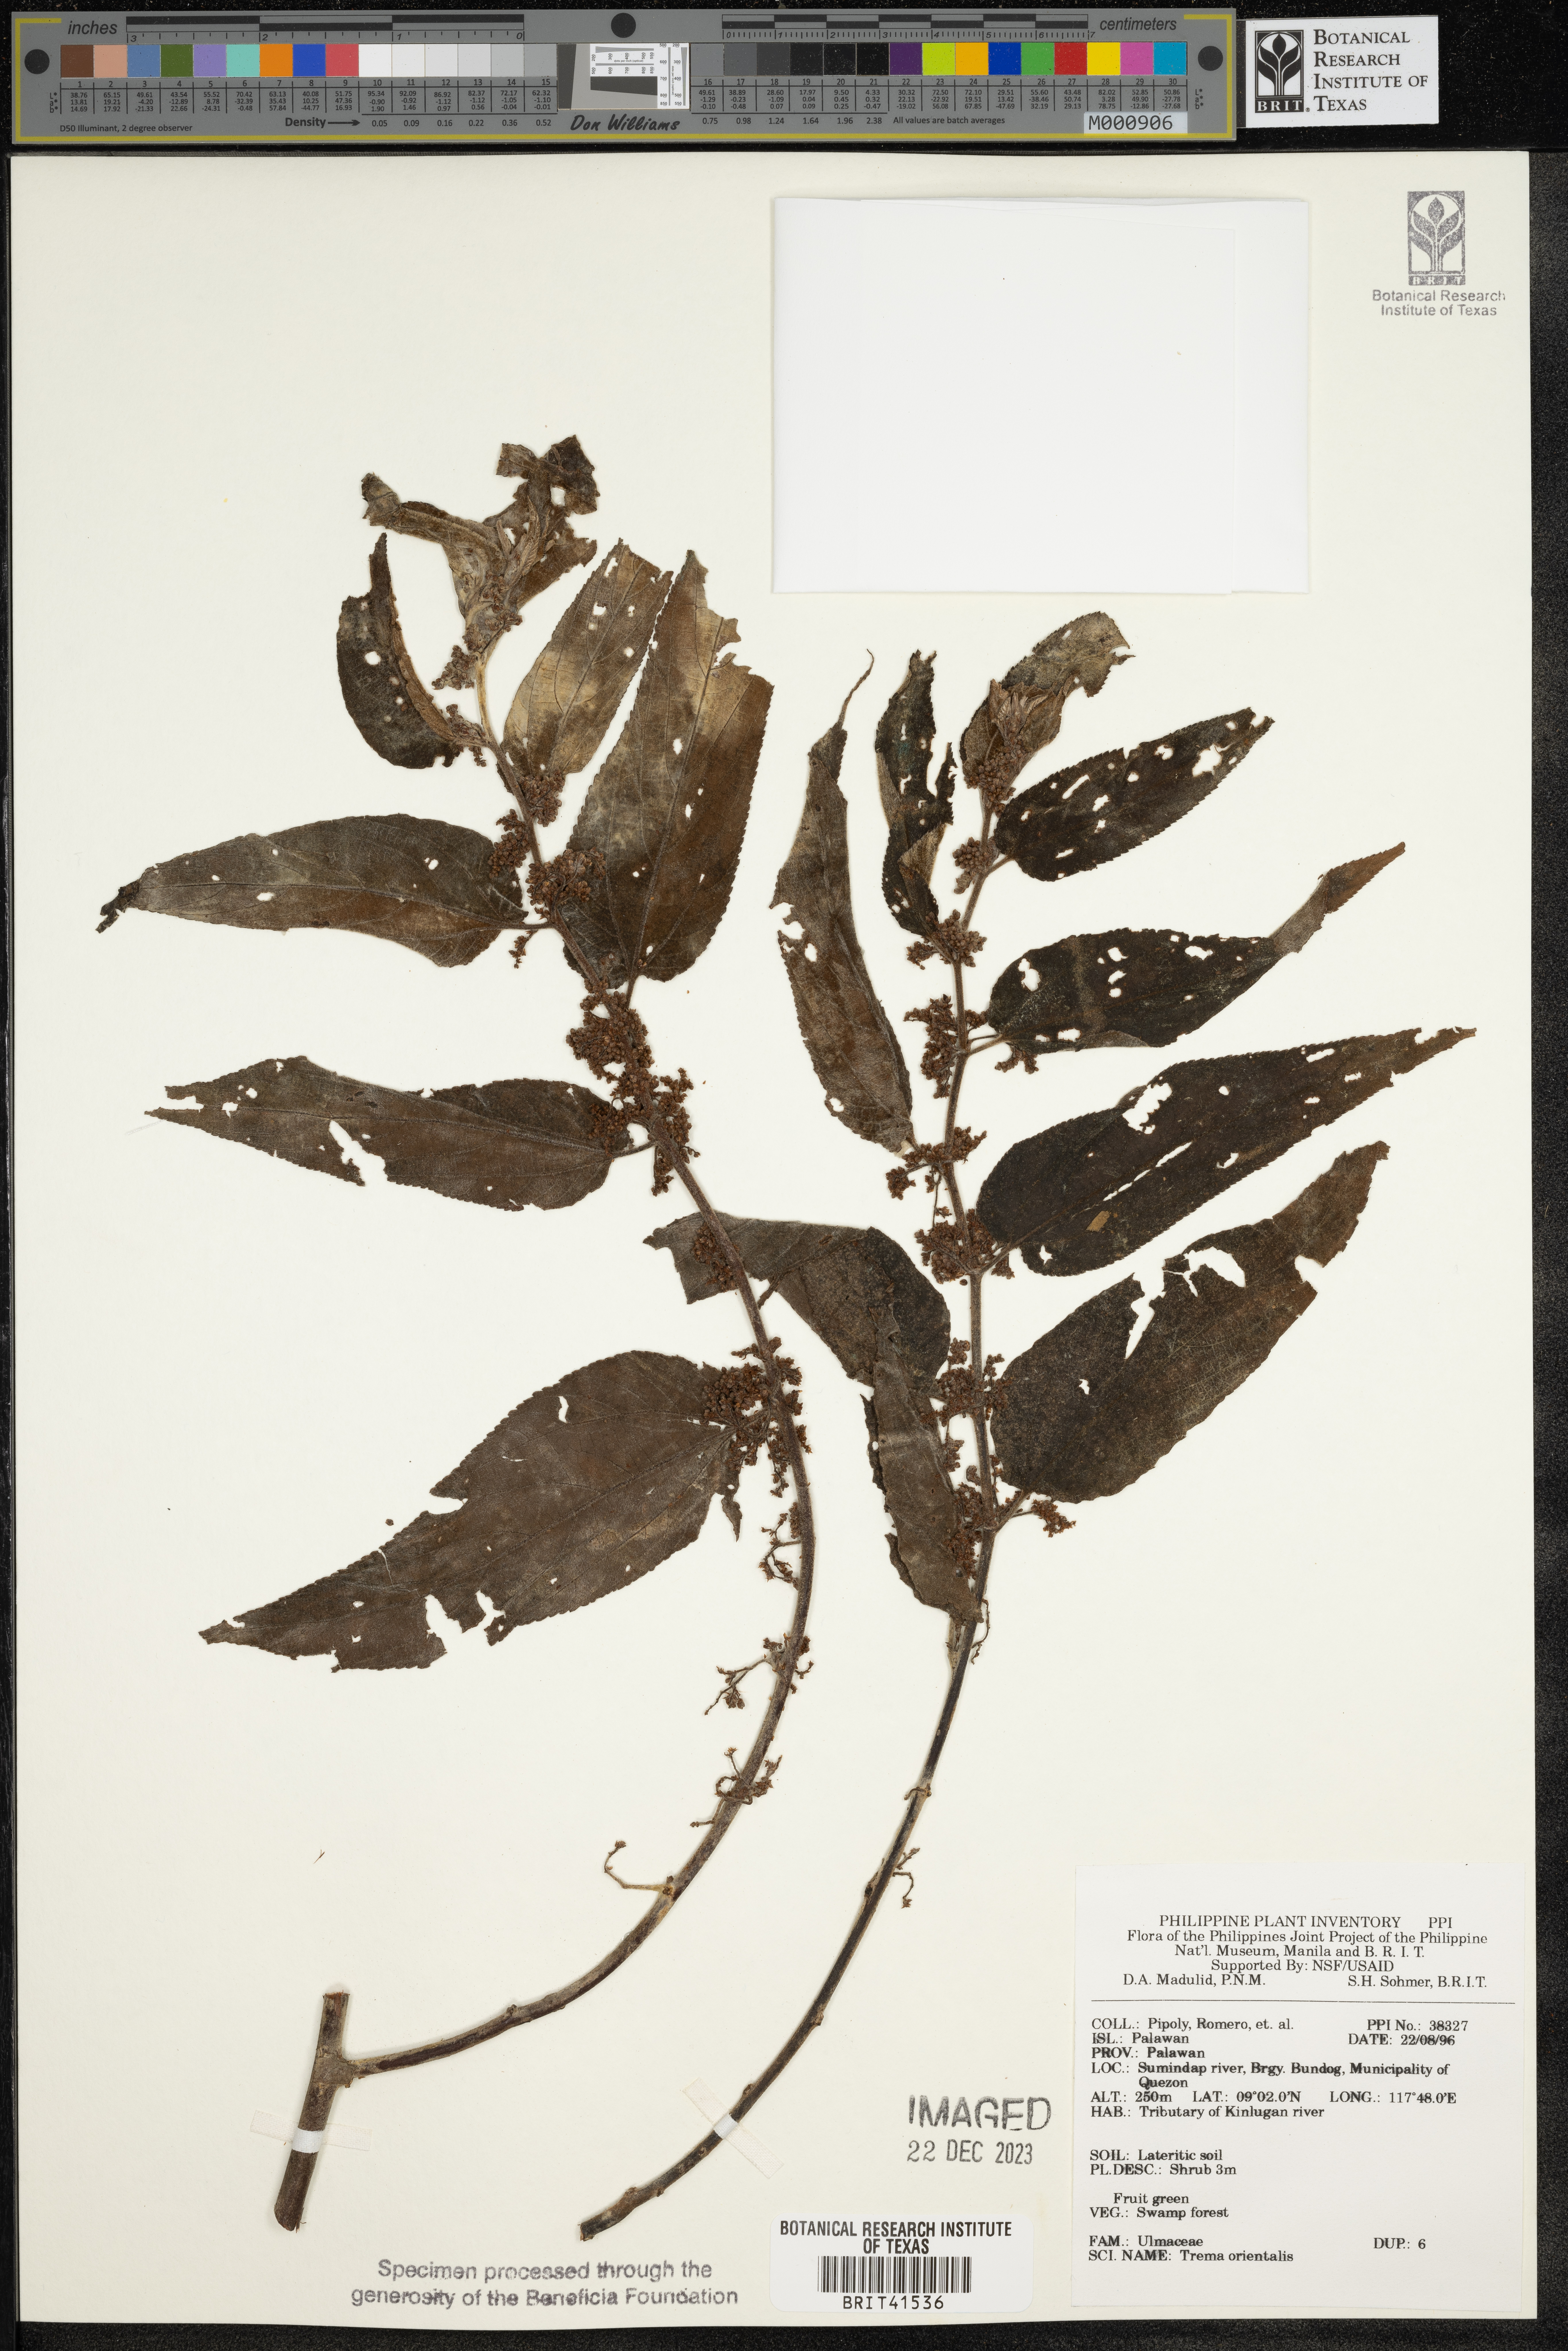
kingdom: Plantae
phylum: Tracheophyta
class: Magnoliopsida
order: Rosales
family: Cannabaceae
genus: Trema
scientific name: Trema orientale
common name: Indian charcoal tree
